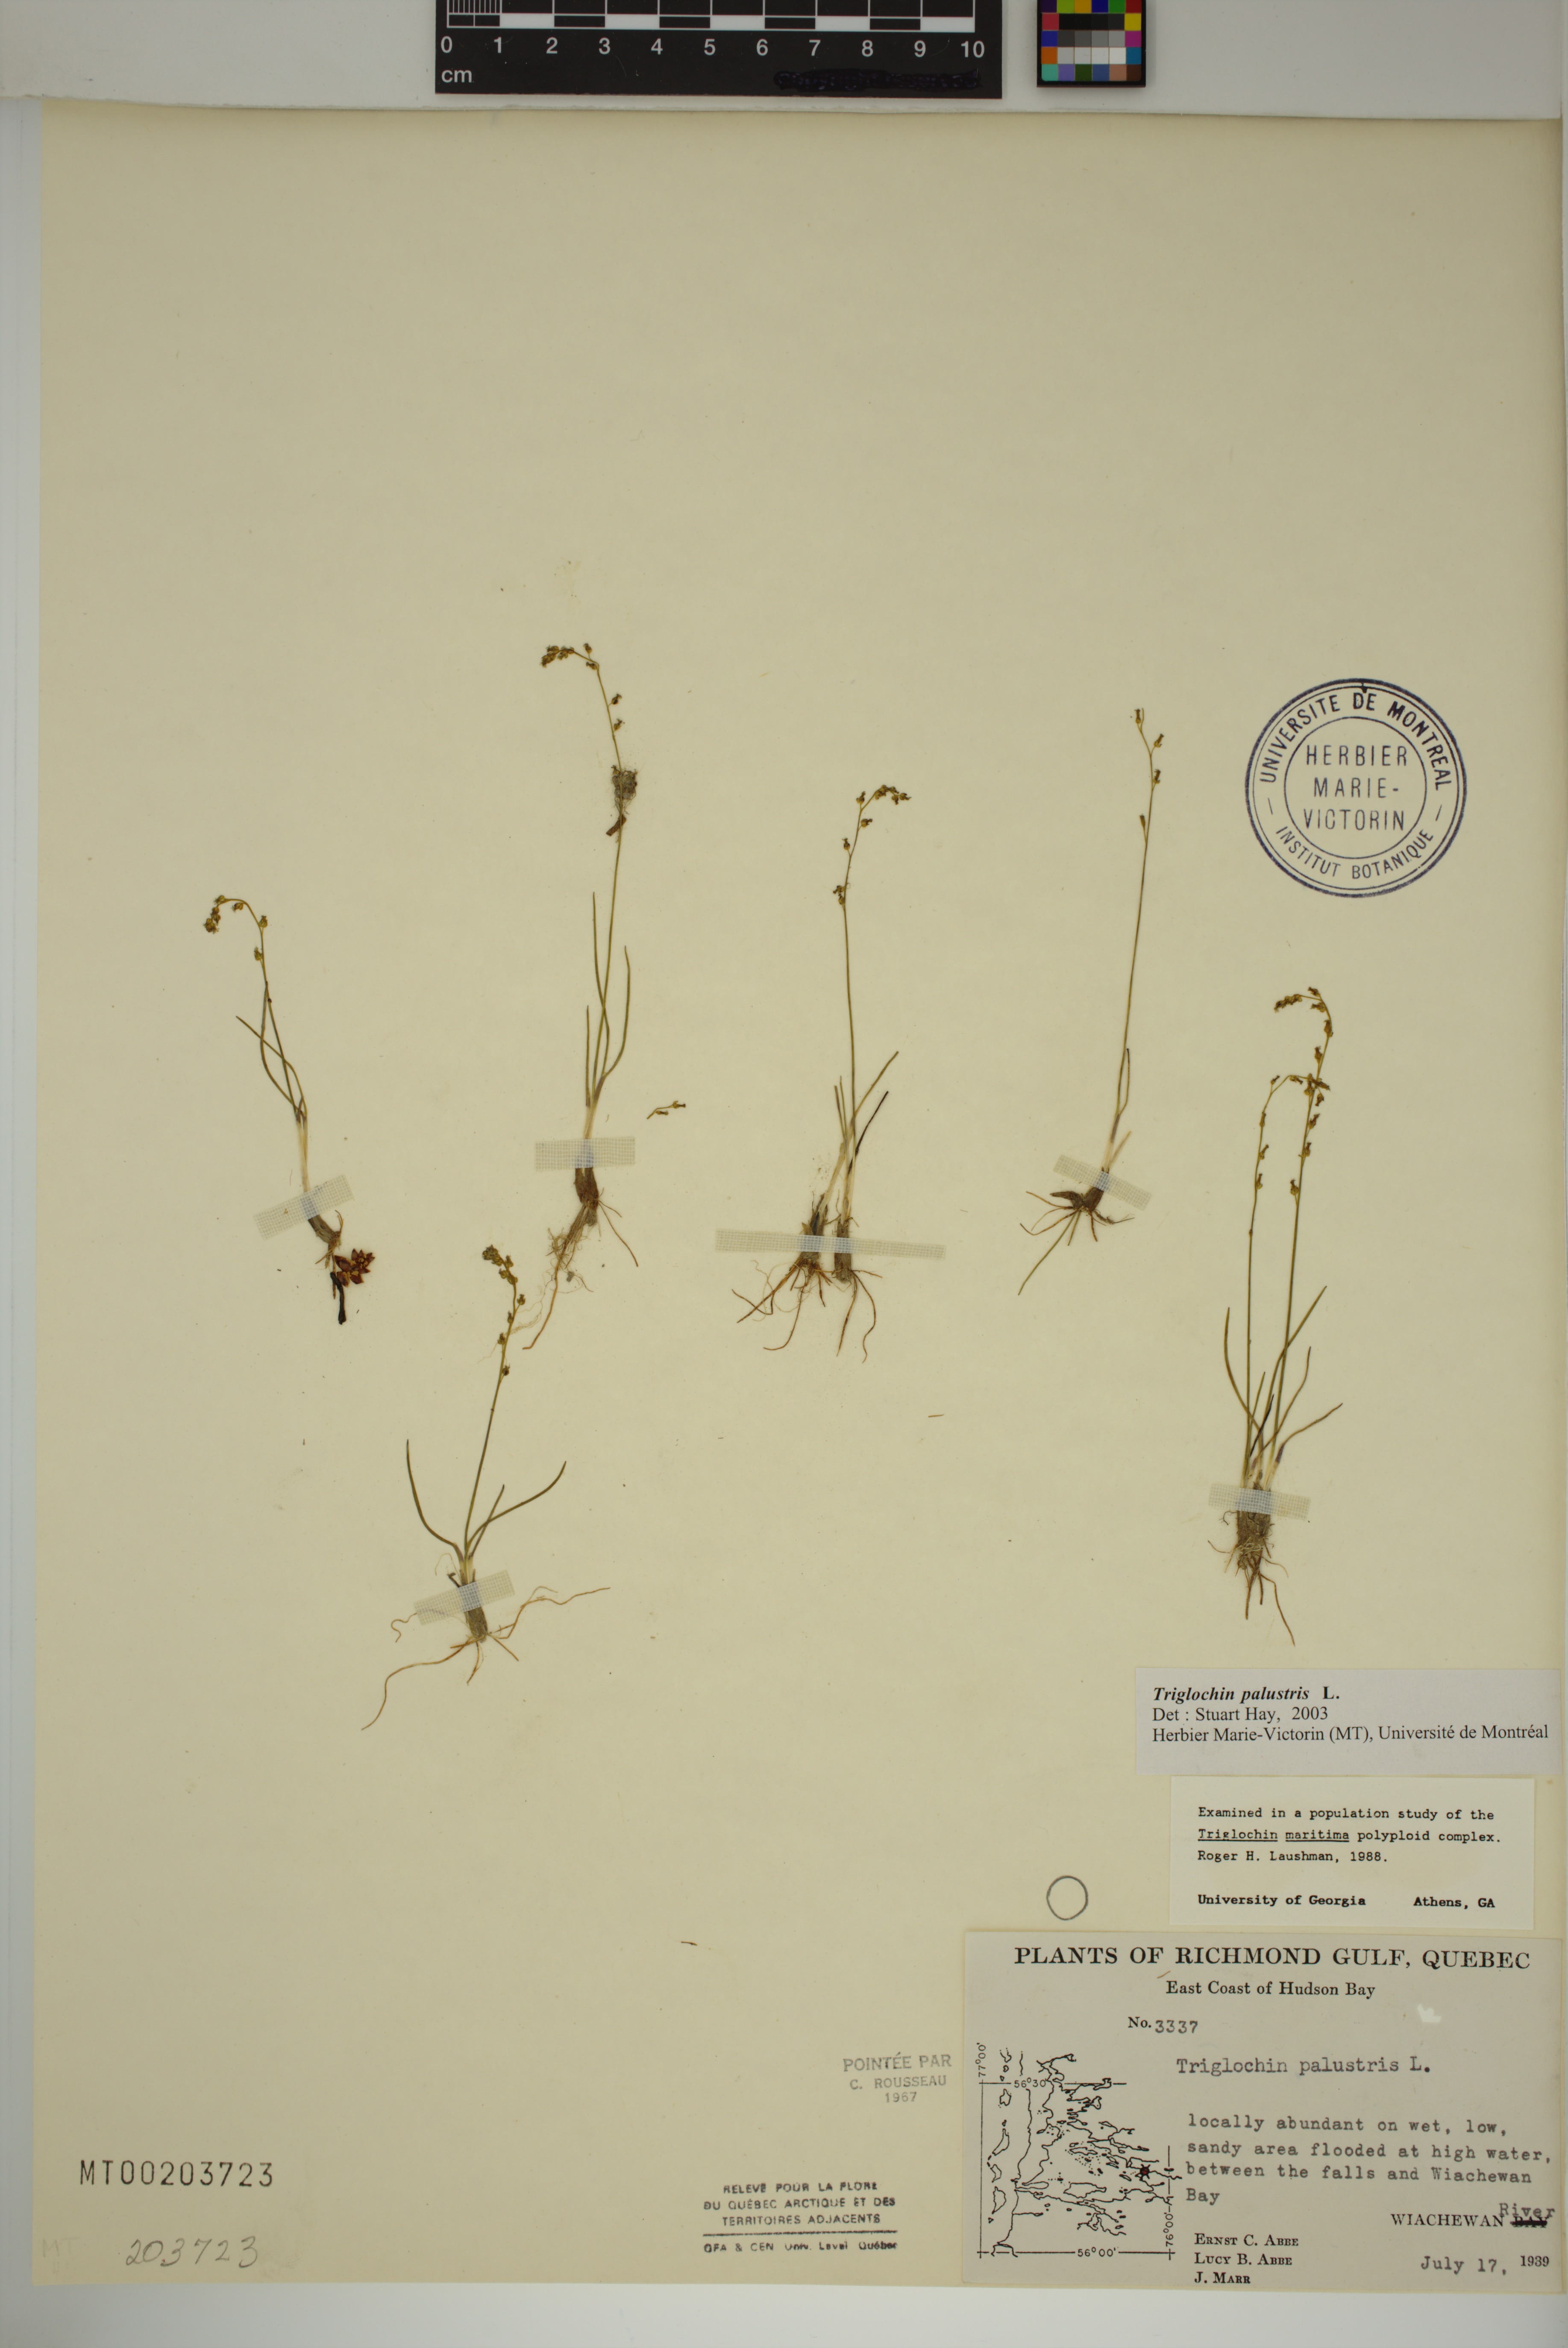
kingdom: Plantae
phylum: Tracheophyta
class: Liliopsida
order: Alismatales
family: Juncaginaceae
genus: Triglochin
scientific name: Triglochin palustris
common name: Marsh arrowgrass
